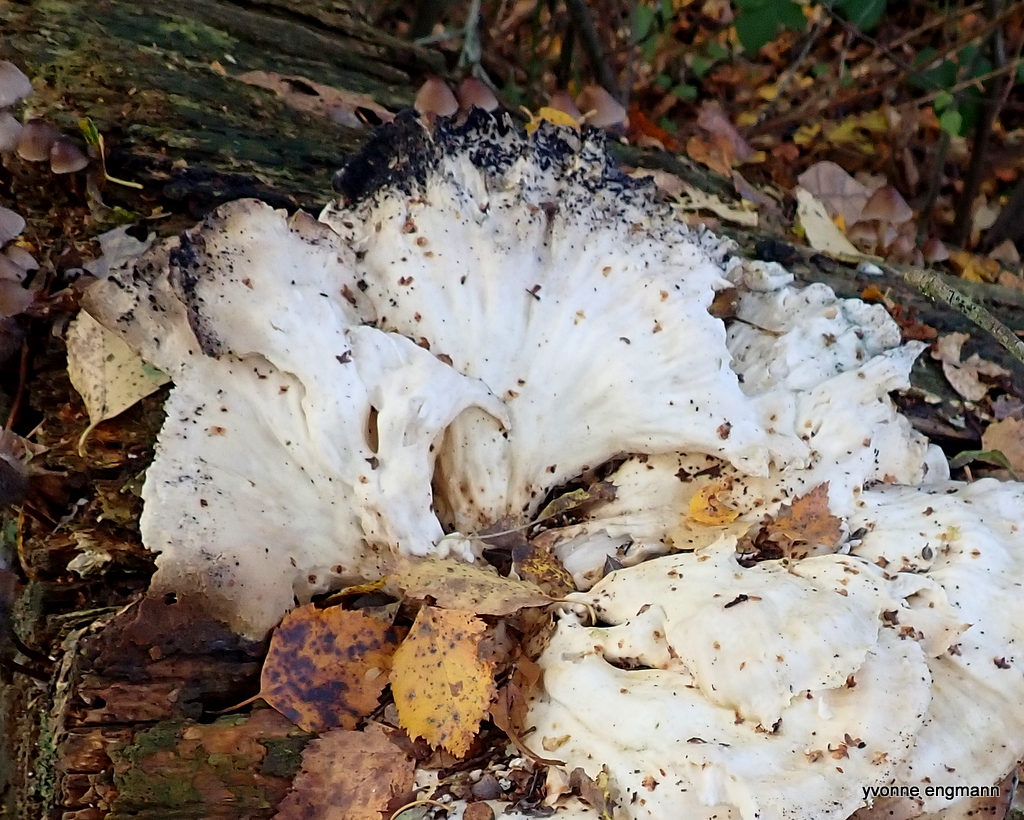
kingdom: Fungi
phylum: Basidiomycota
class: Agaricomycetes
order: Polyporales
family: Laetiporaceae
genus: Laetiporus
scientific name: Laetiporus sulphureus
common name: svovlporesvamp
